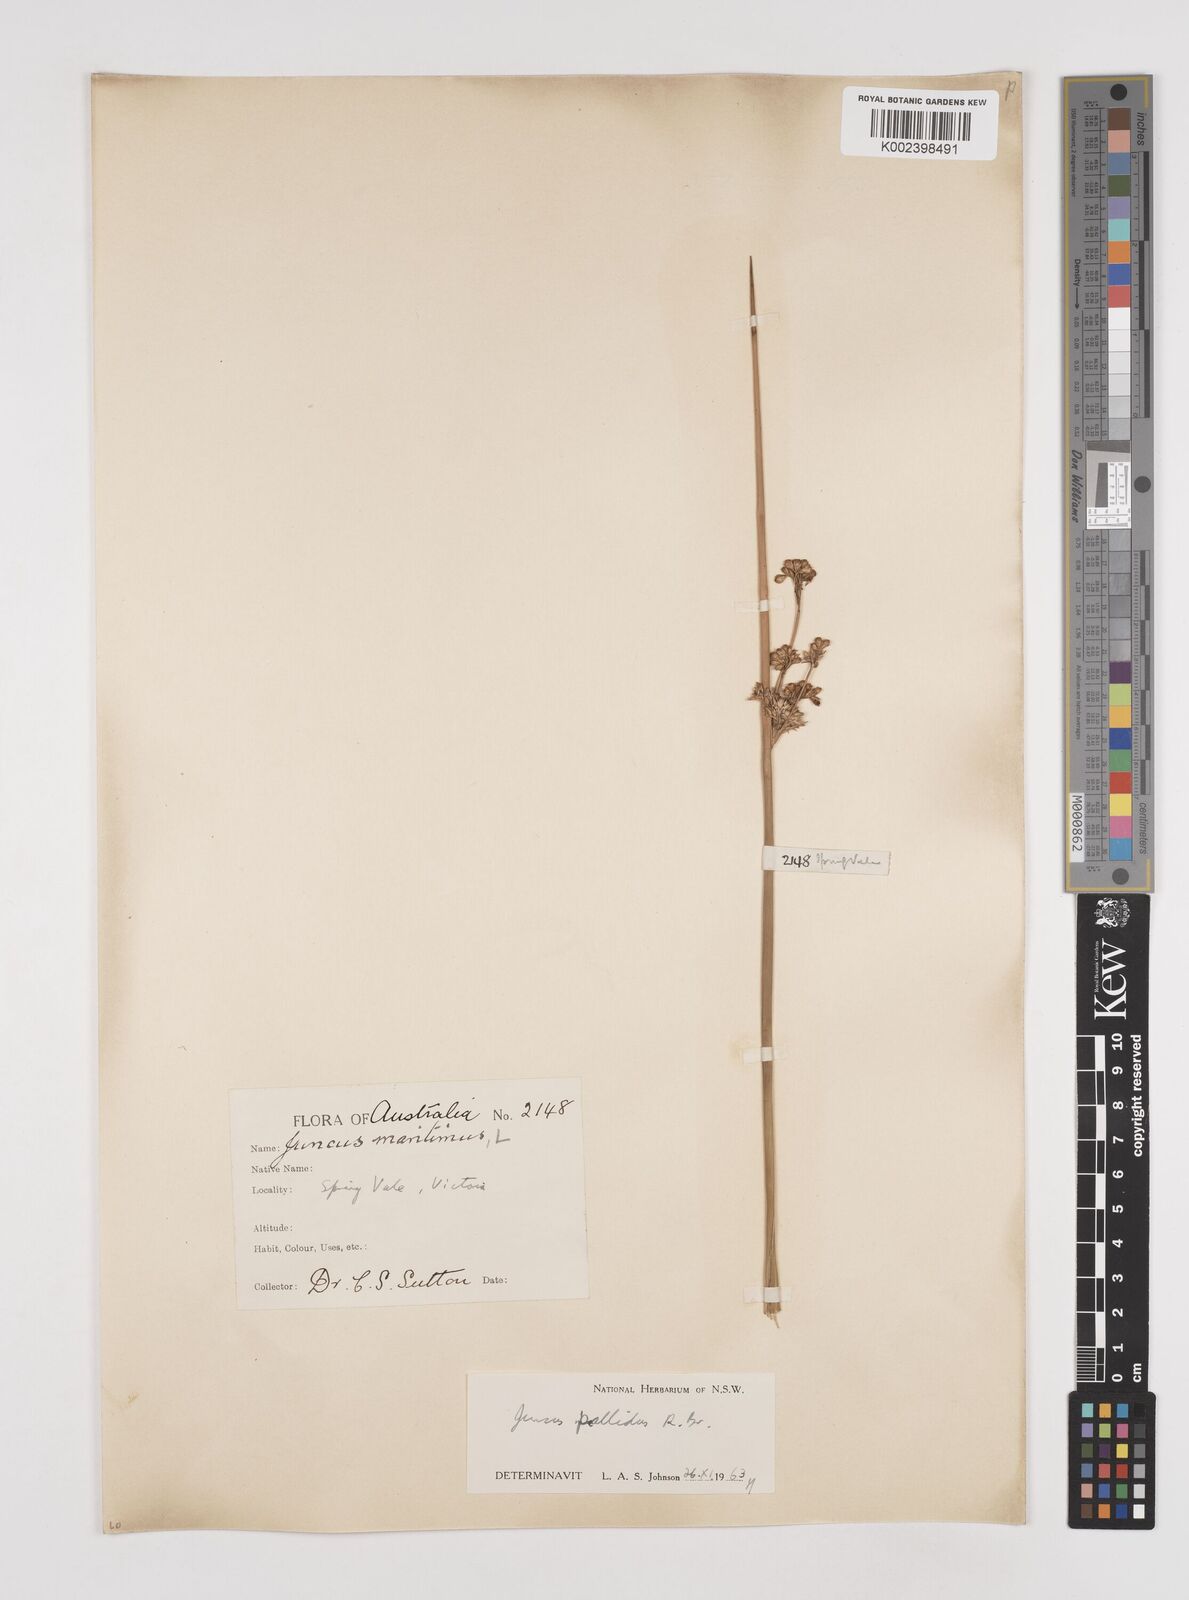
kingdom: Plantae
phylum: Tracheophyta
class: Liliopsida
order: Poales
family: Juncaceae
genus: Juncus
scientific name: Juncus pallidus
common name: Great soft-rush
